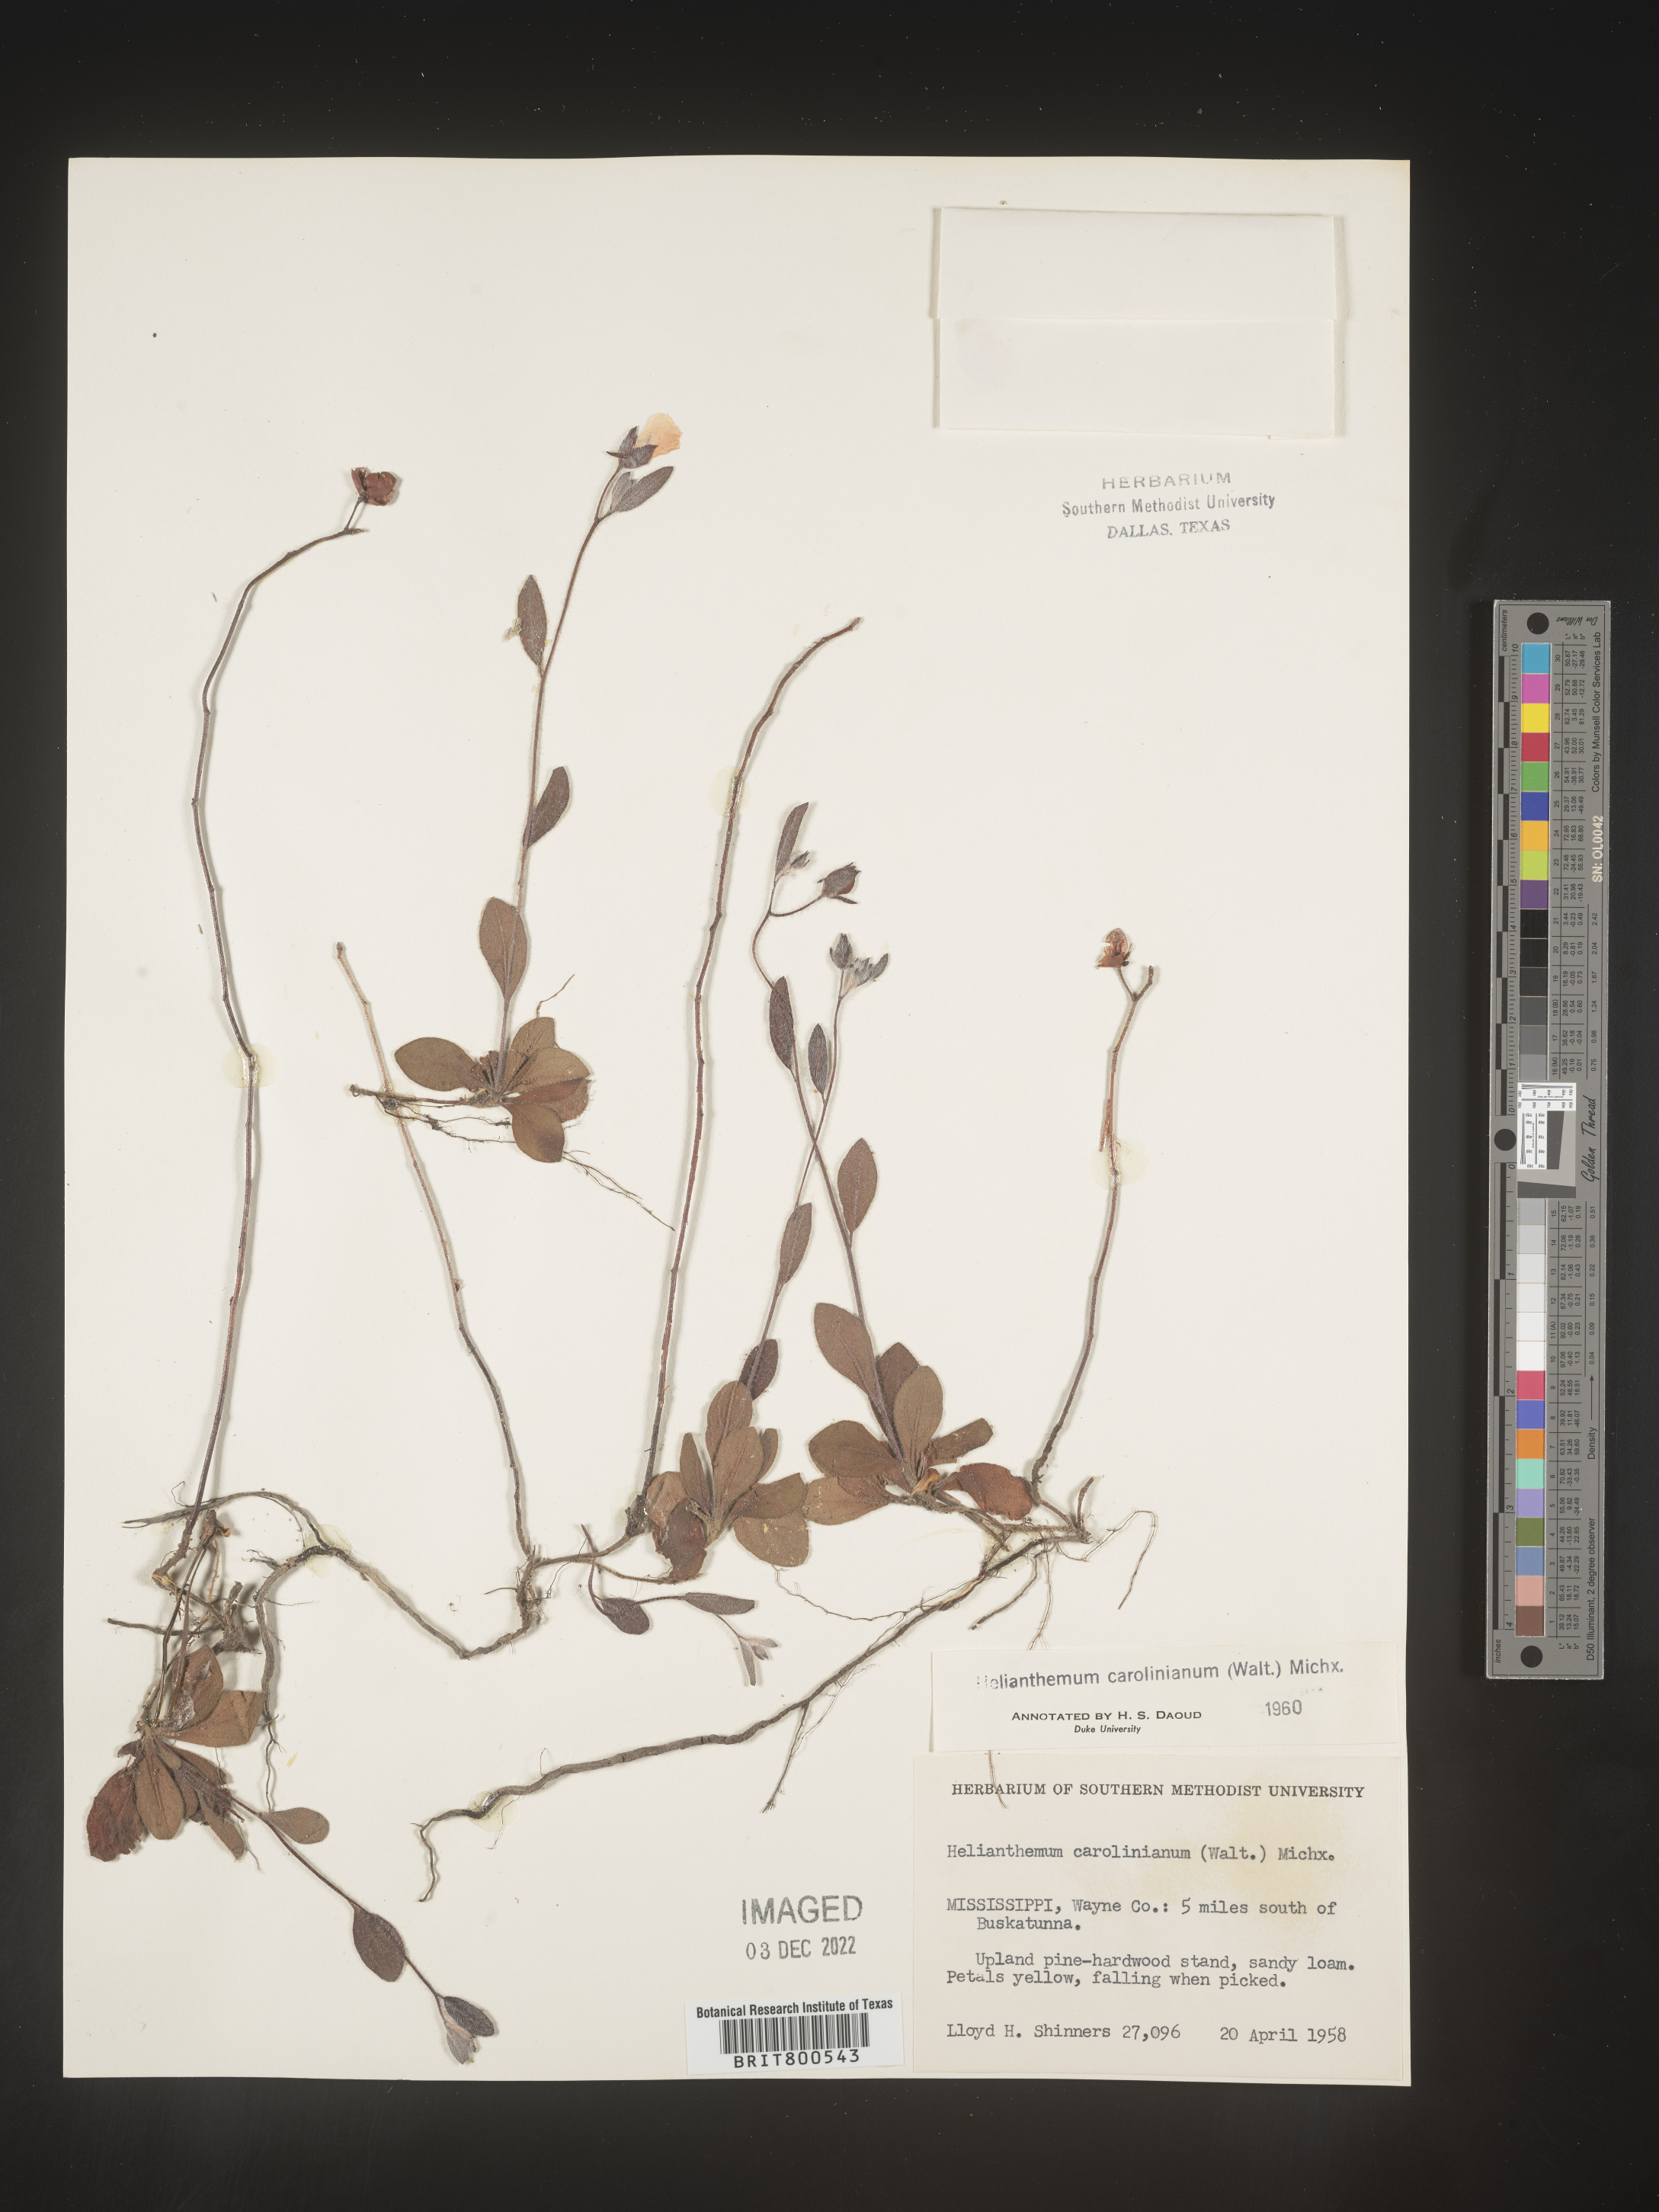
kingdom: Plantae
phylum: Tracheophyta
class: Magnoliopsida
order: Malvales
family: Cistaceae
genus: Crocanthemum
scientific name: Crocanthemum carolinianum
